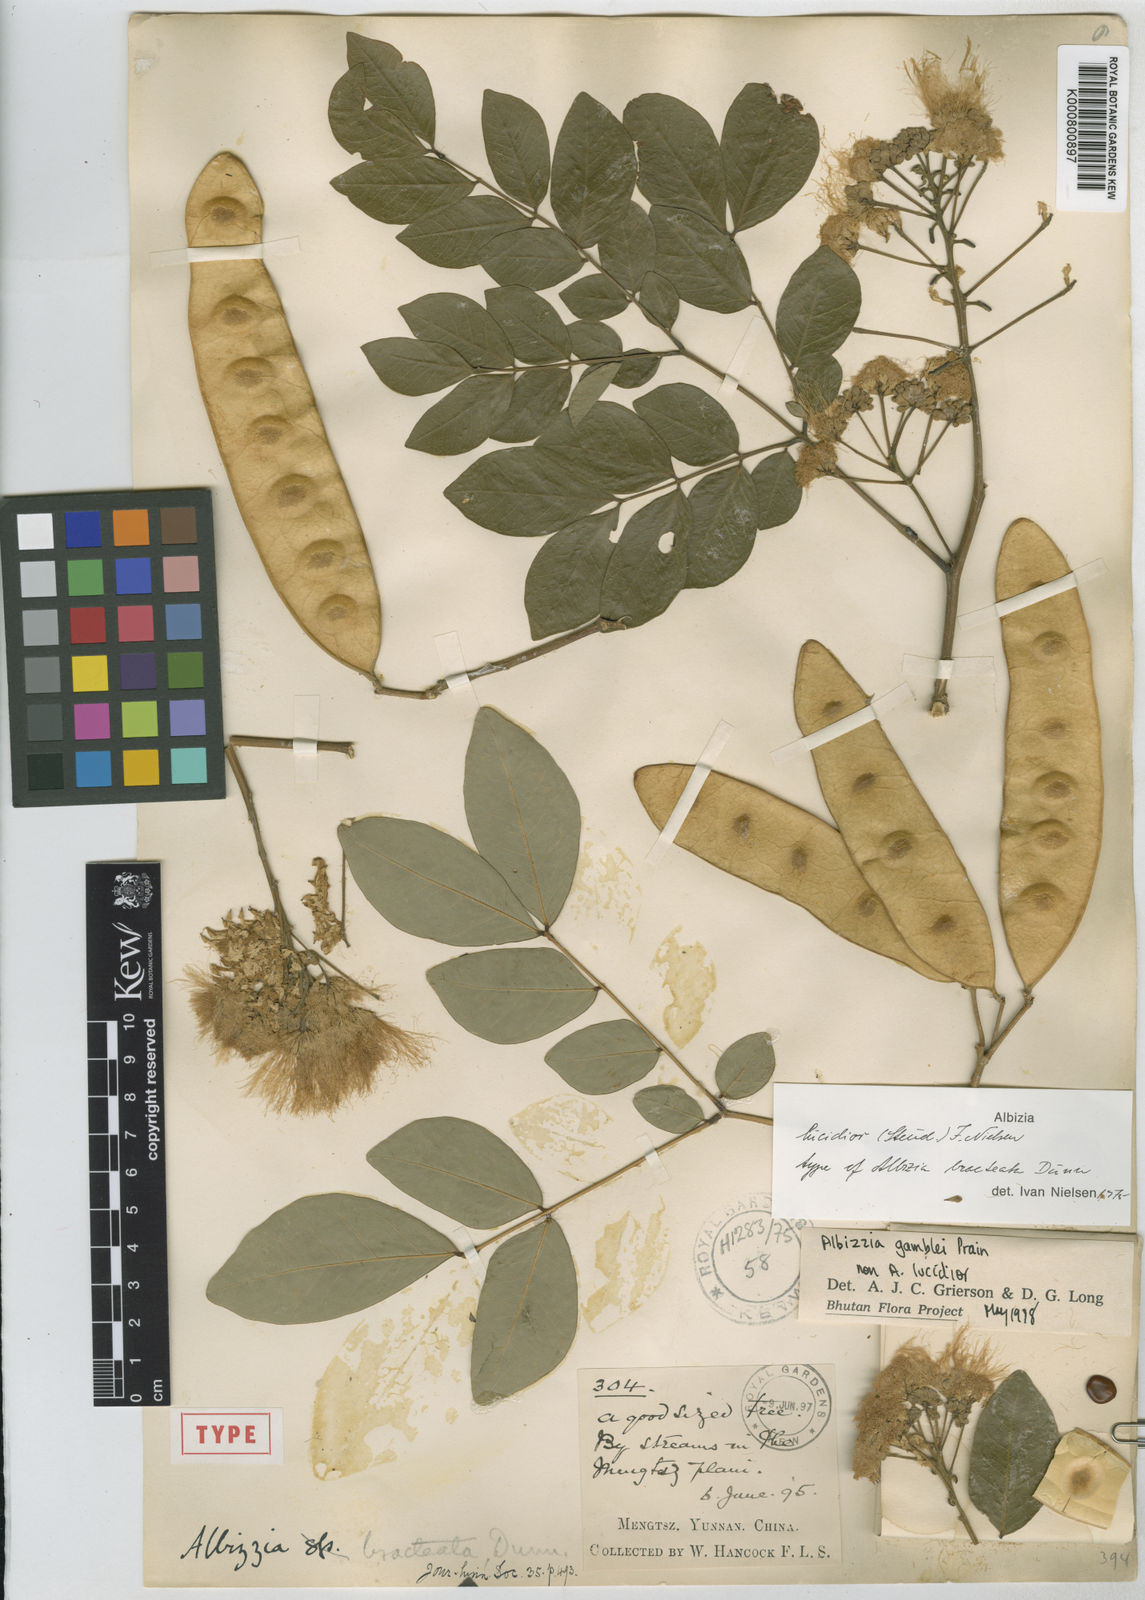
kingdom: Plantae
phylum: Tracheophyta
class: Magnoliopsida
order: Fabales
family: Fabaceae
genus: Albizia
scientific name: Albizia lucidior
